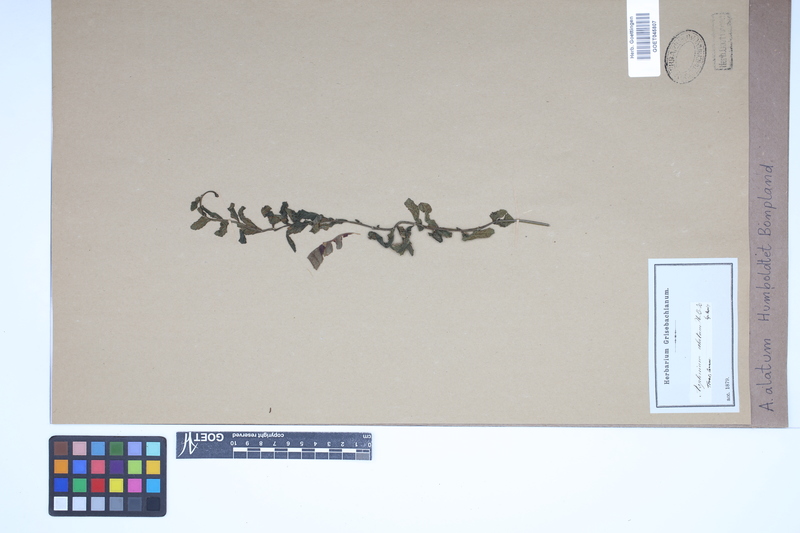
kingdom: Plantae
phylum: Tracheophyta
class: Polypodiopsida
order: Polypodiales
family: Aspleniaceae
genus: Asplenium
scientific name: Asplenium alatum
